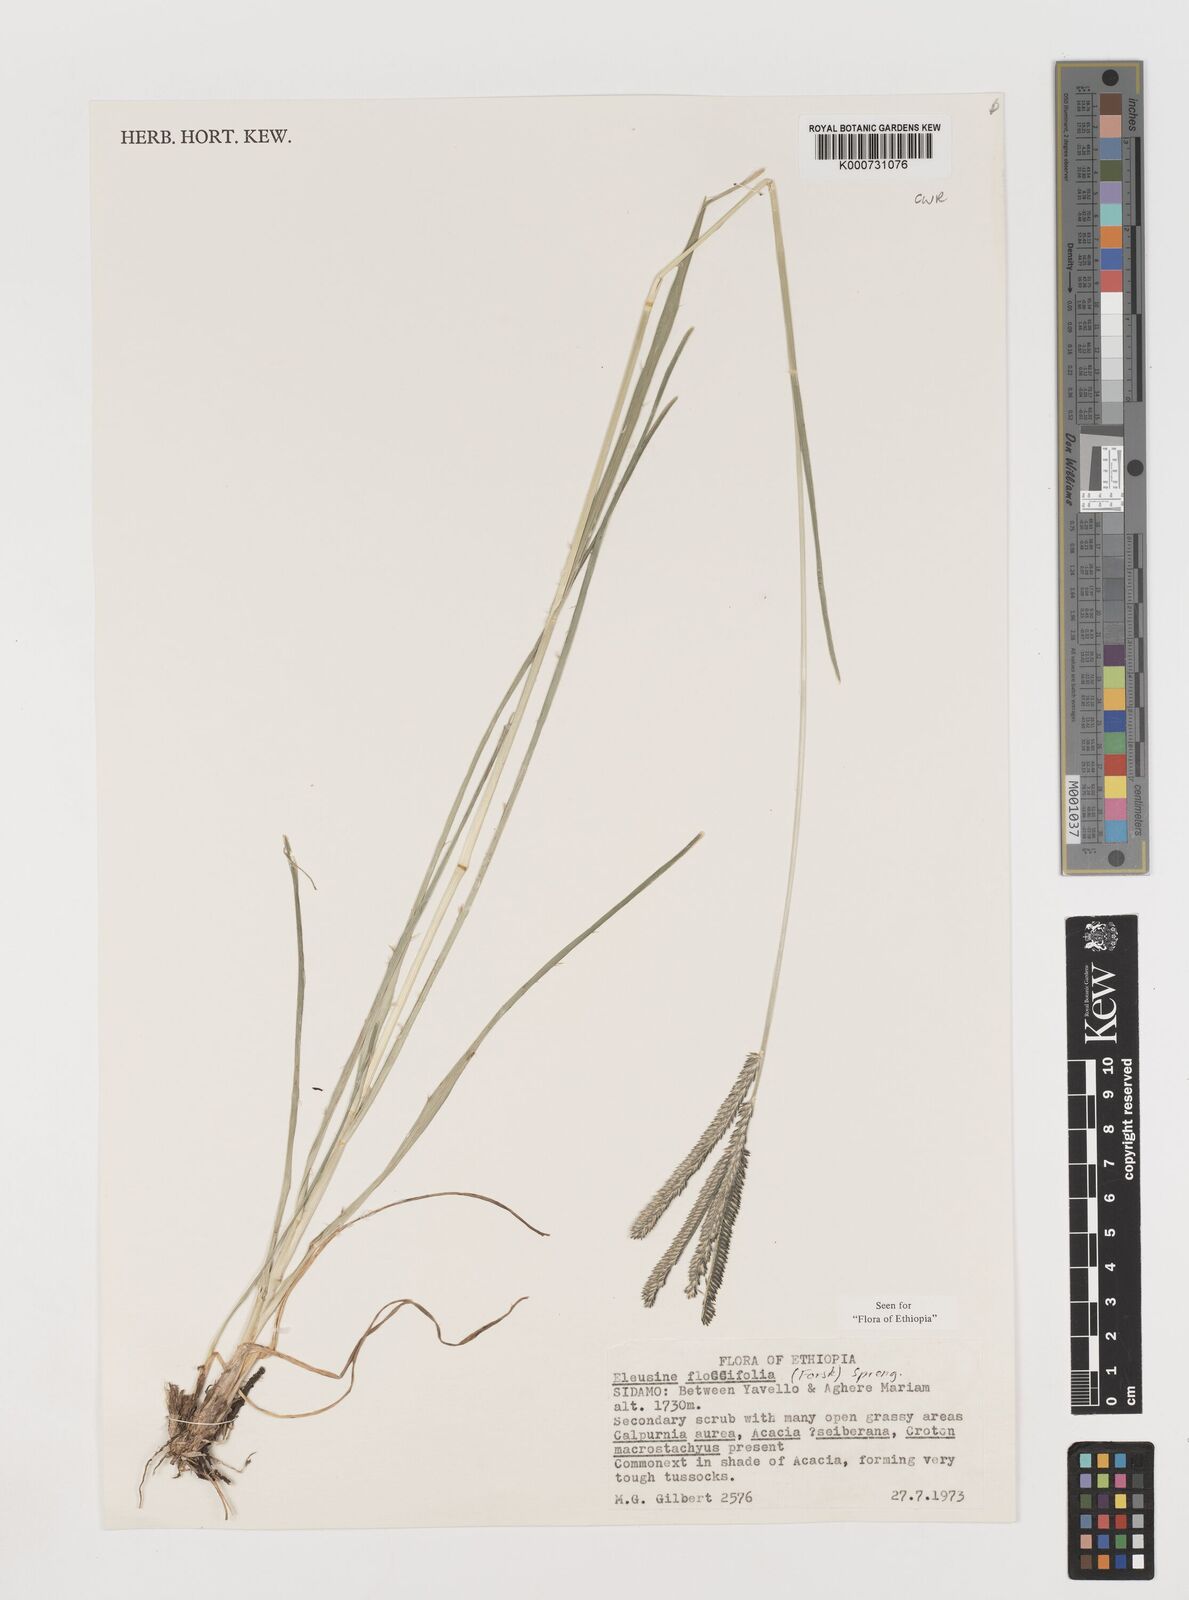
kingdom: Plantae
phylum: Tracheophyta
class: Liliopsida
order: Poales
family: Poaceae
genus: Eleusine
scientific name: Eleusine floccifolia
